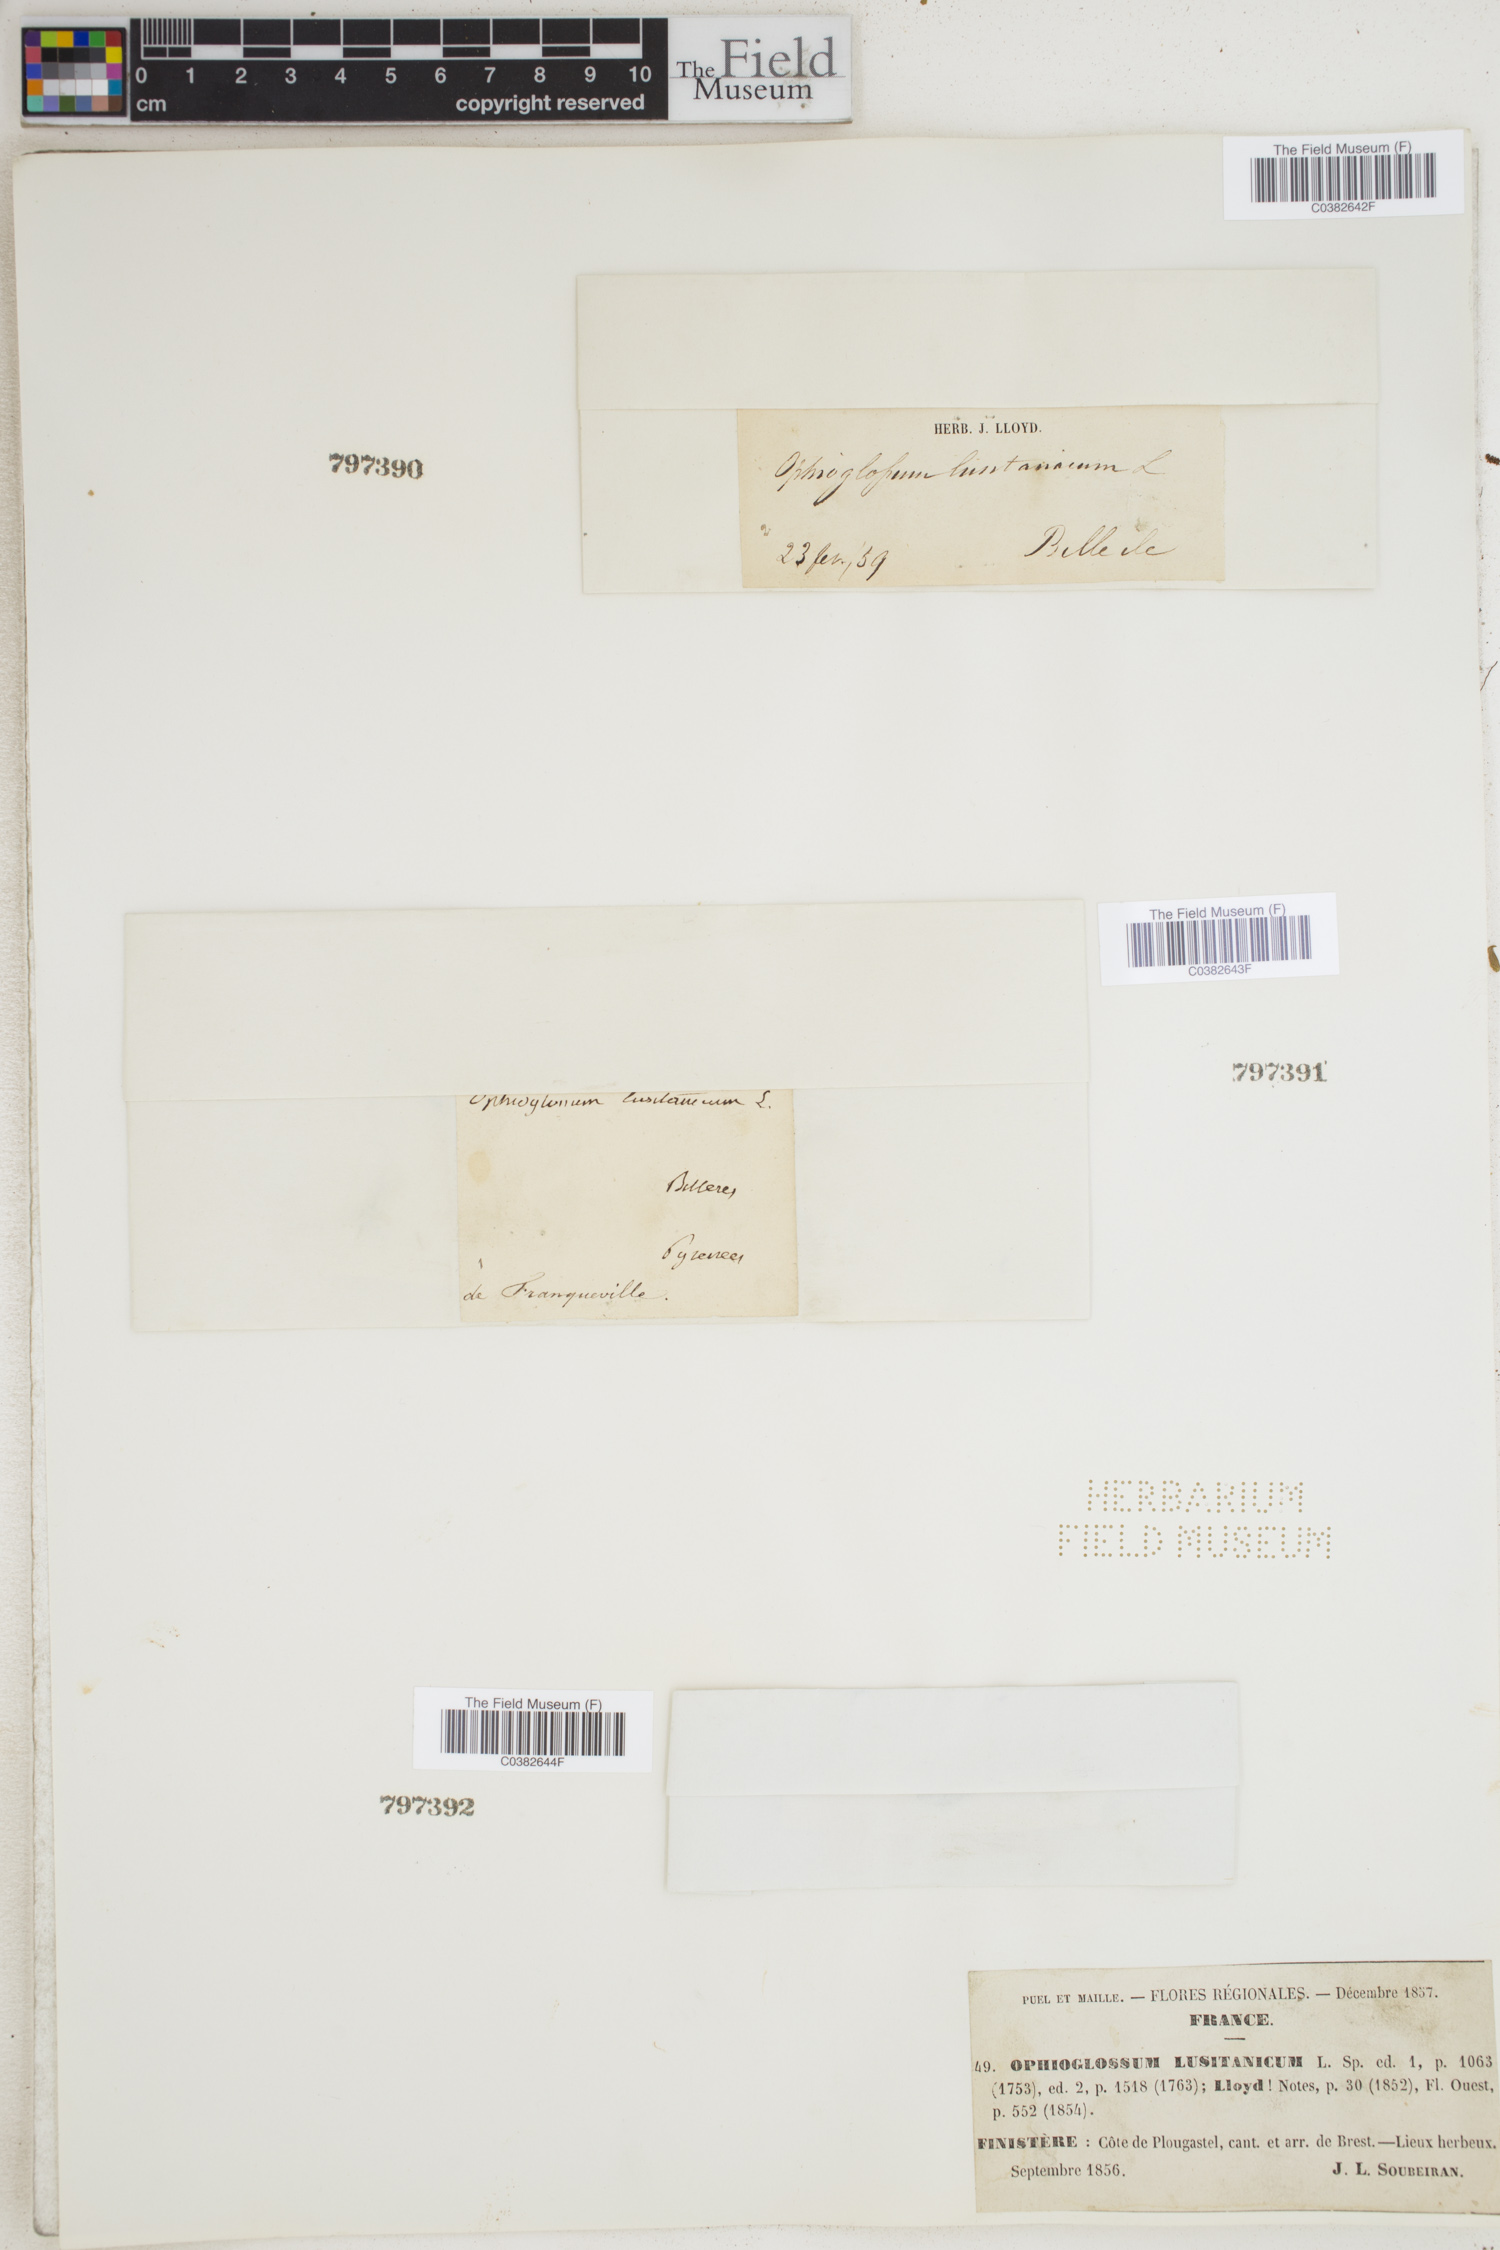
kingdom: Plantae
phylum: Tracheophyta
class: Polypodiopsida
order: Ophioglossales
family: Ophioglossaceae
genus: Ophioglossum
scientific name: Ophioglossum lusitanicum
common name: Least adder's-tongue
